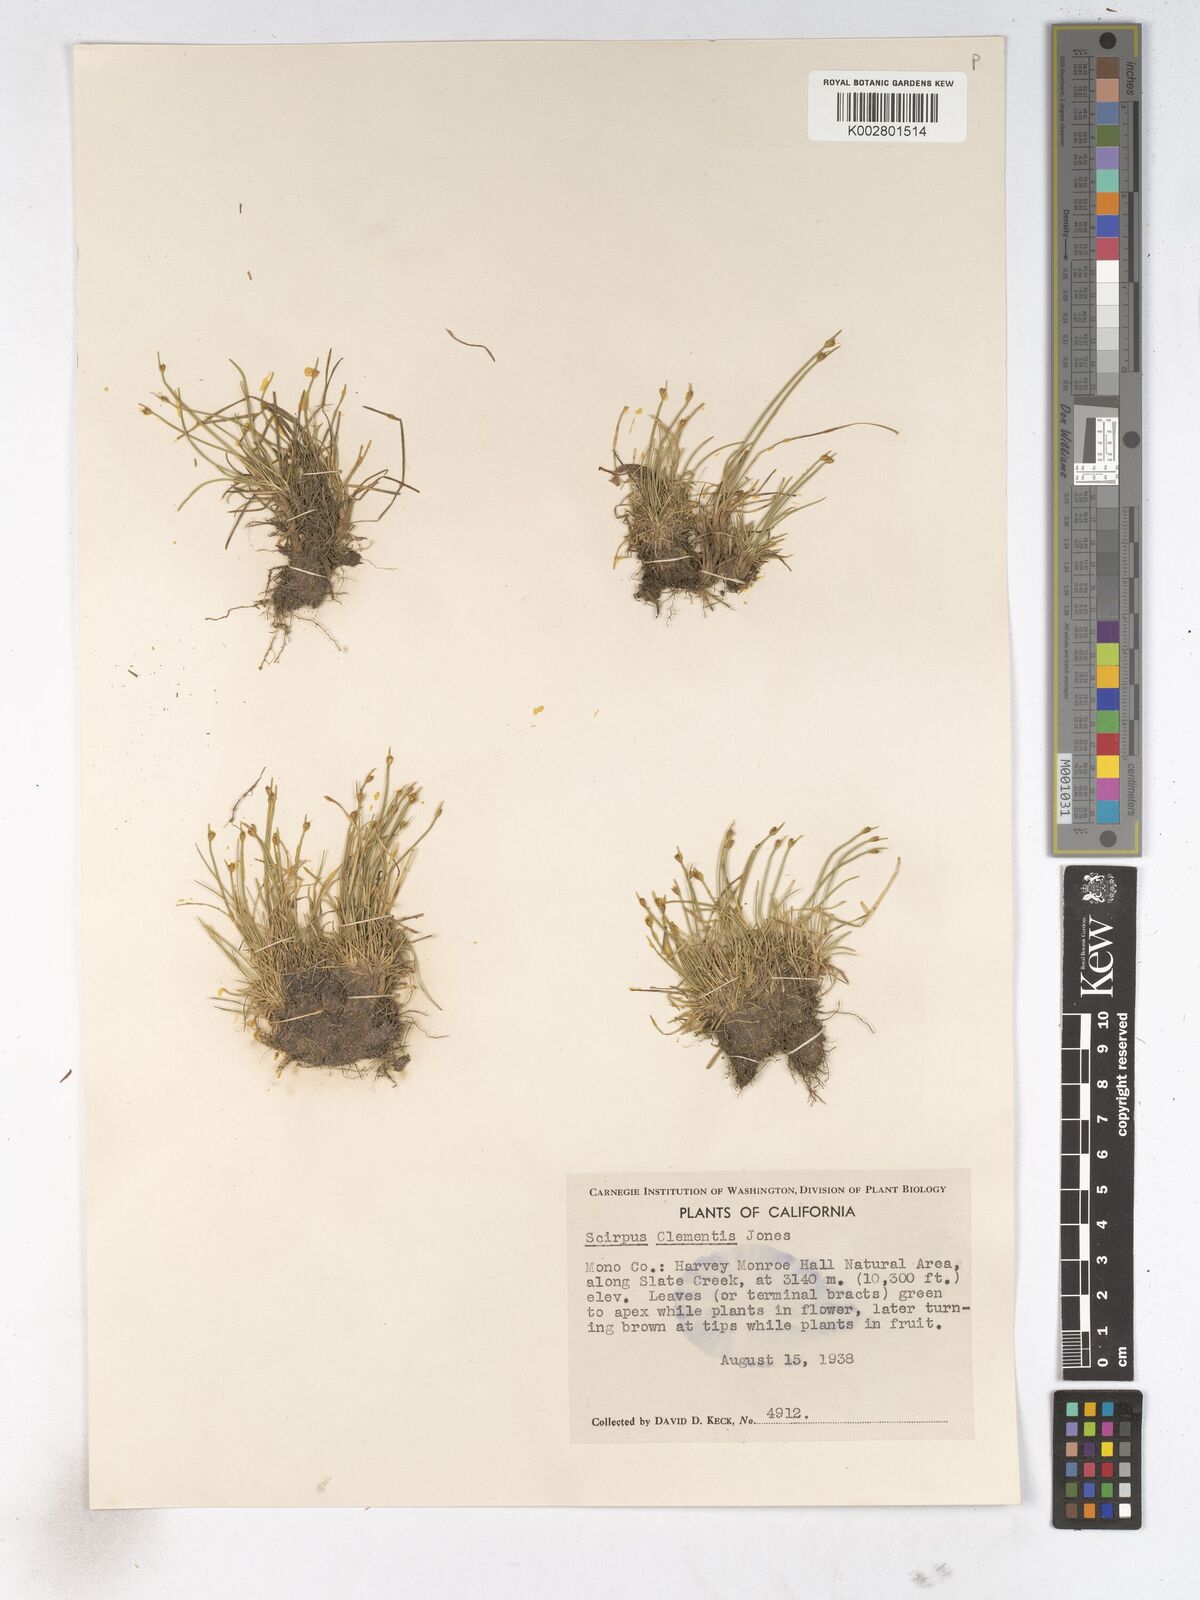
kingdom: Plantae
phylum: Tracheophyta
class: Liliopsida
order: Poales
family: Cyperaceae
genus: Trichophorum
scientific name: Trichophorum clementis
